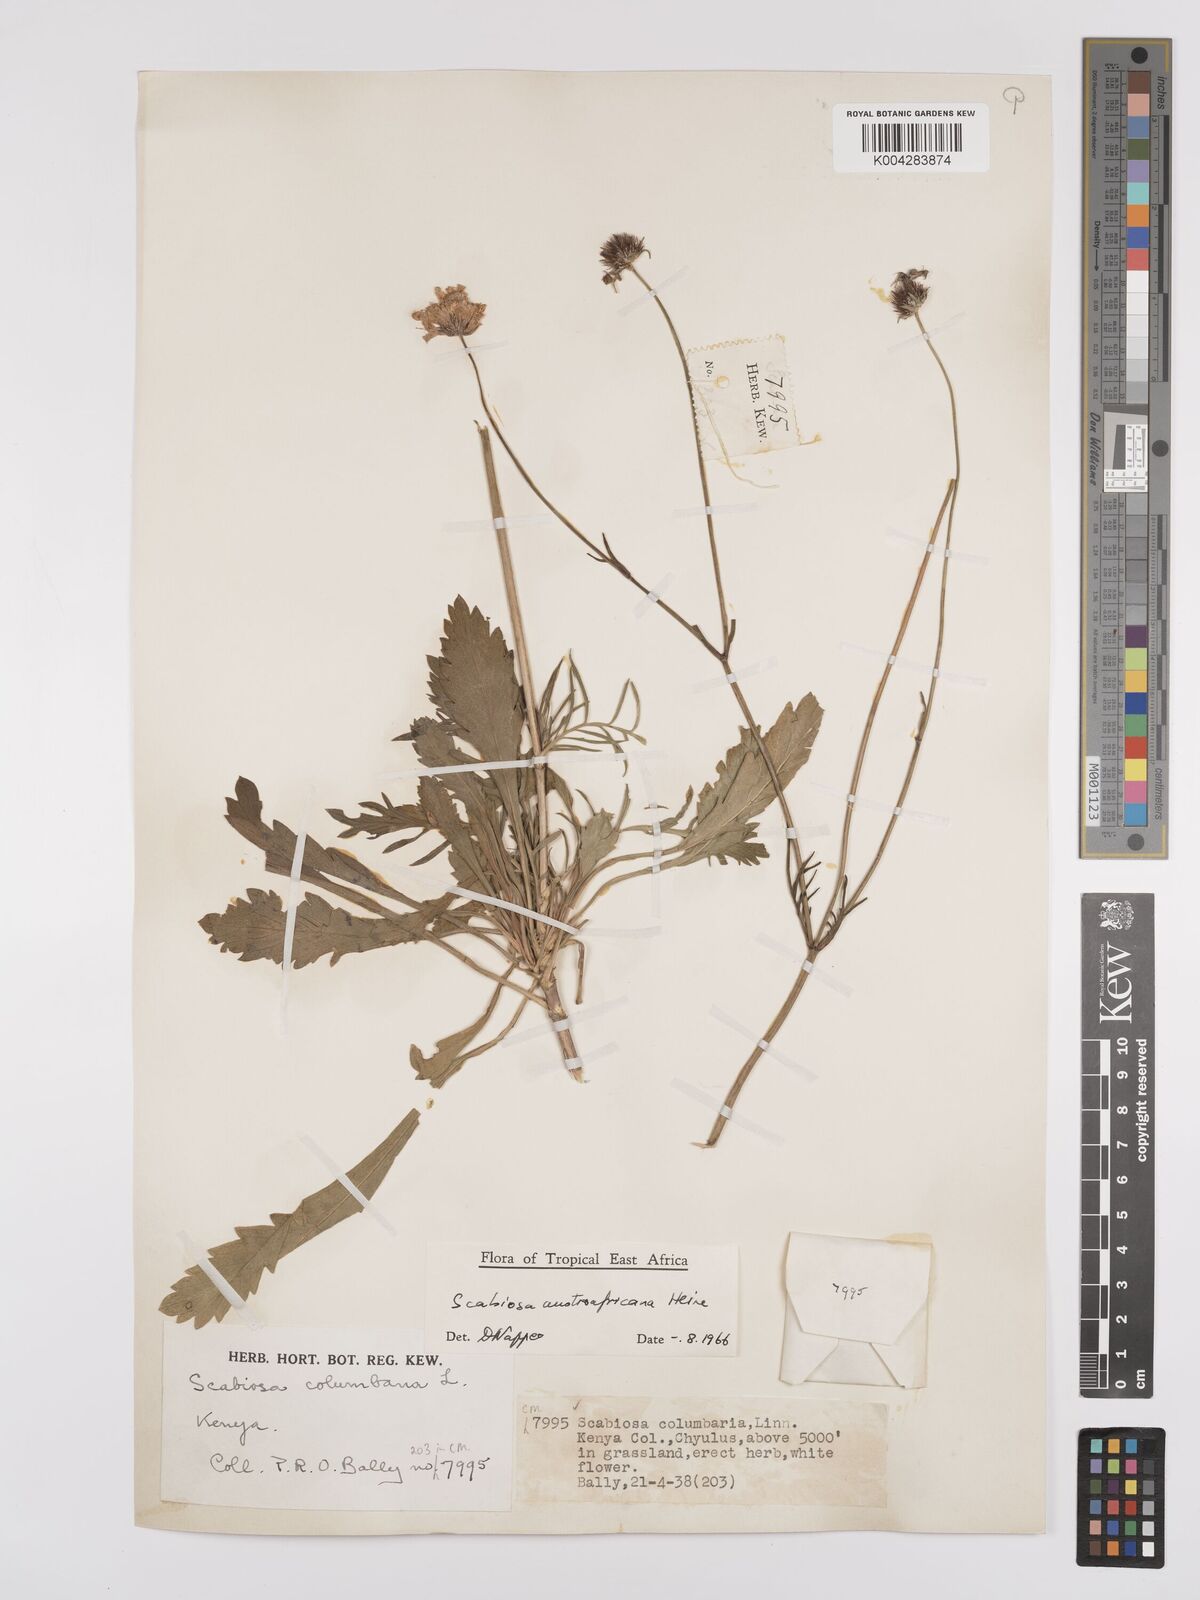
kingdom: Plantae
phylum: Tracheophyta
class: Magnoliopsida
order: Dipsacales
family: Caprifoliaceae
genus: Scabiosa
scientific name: Scabiosa austroafricana
